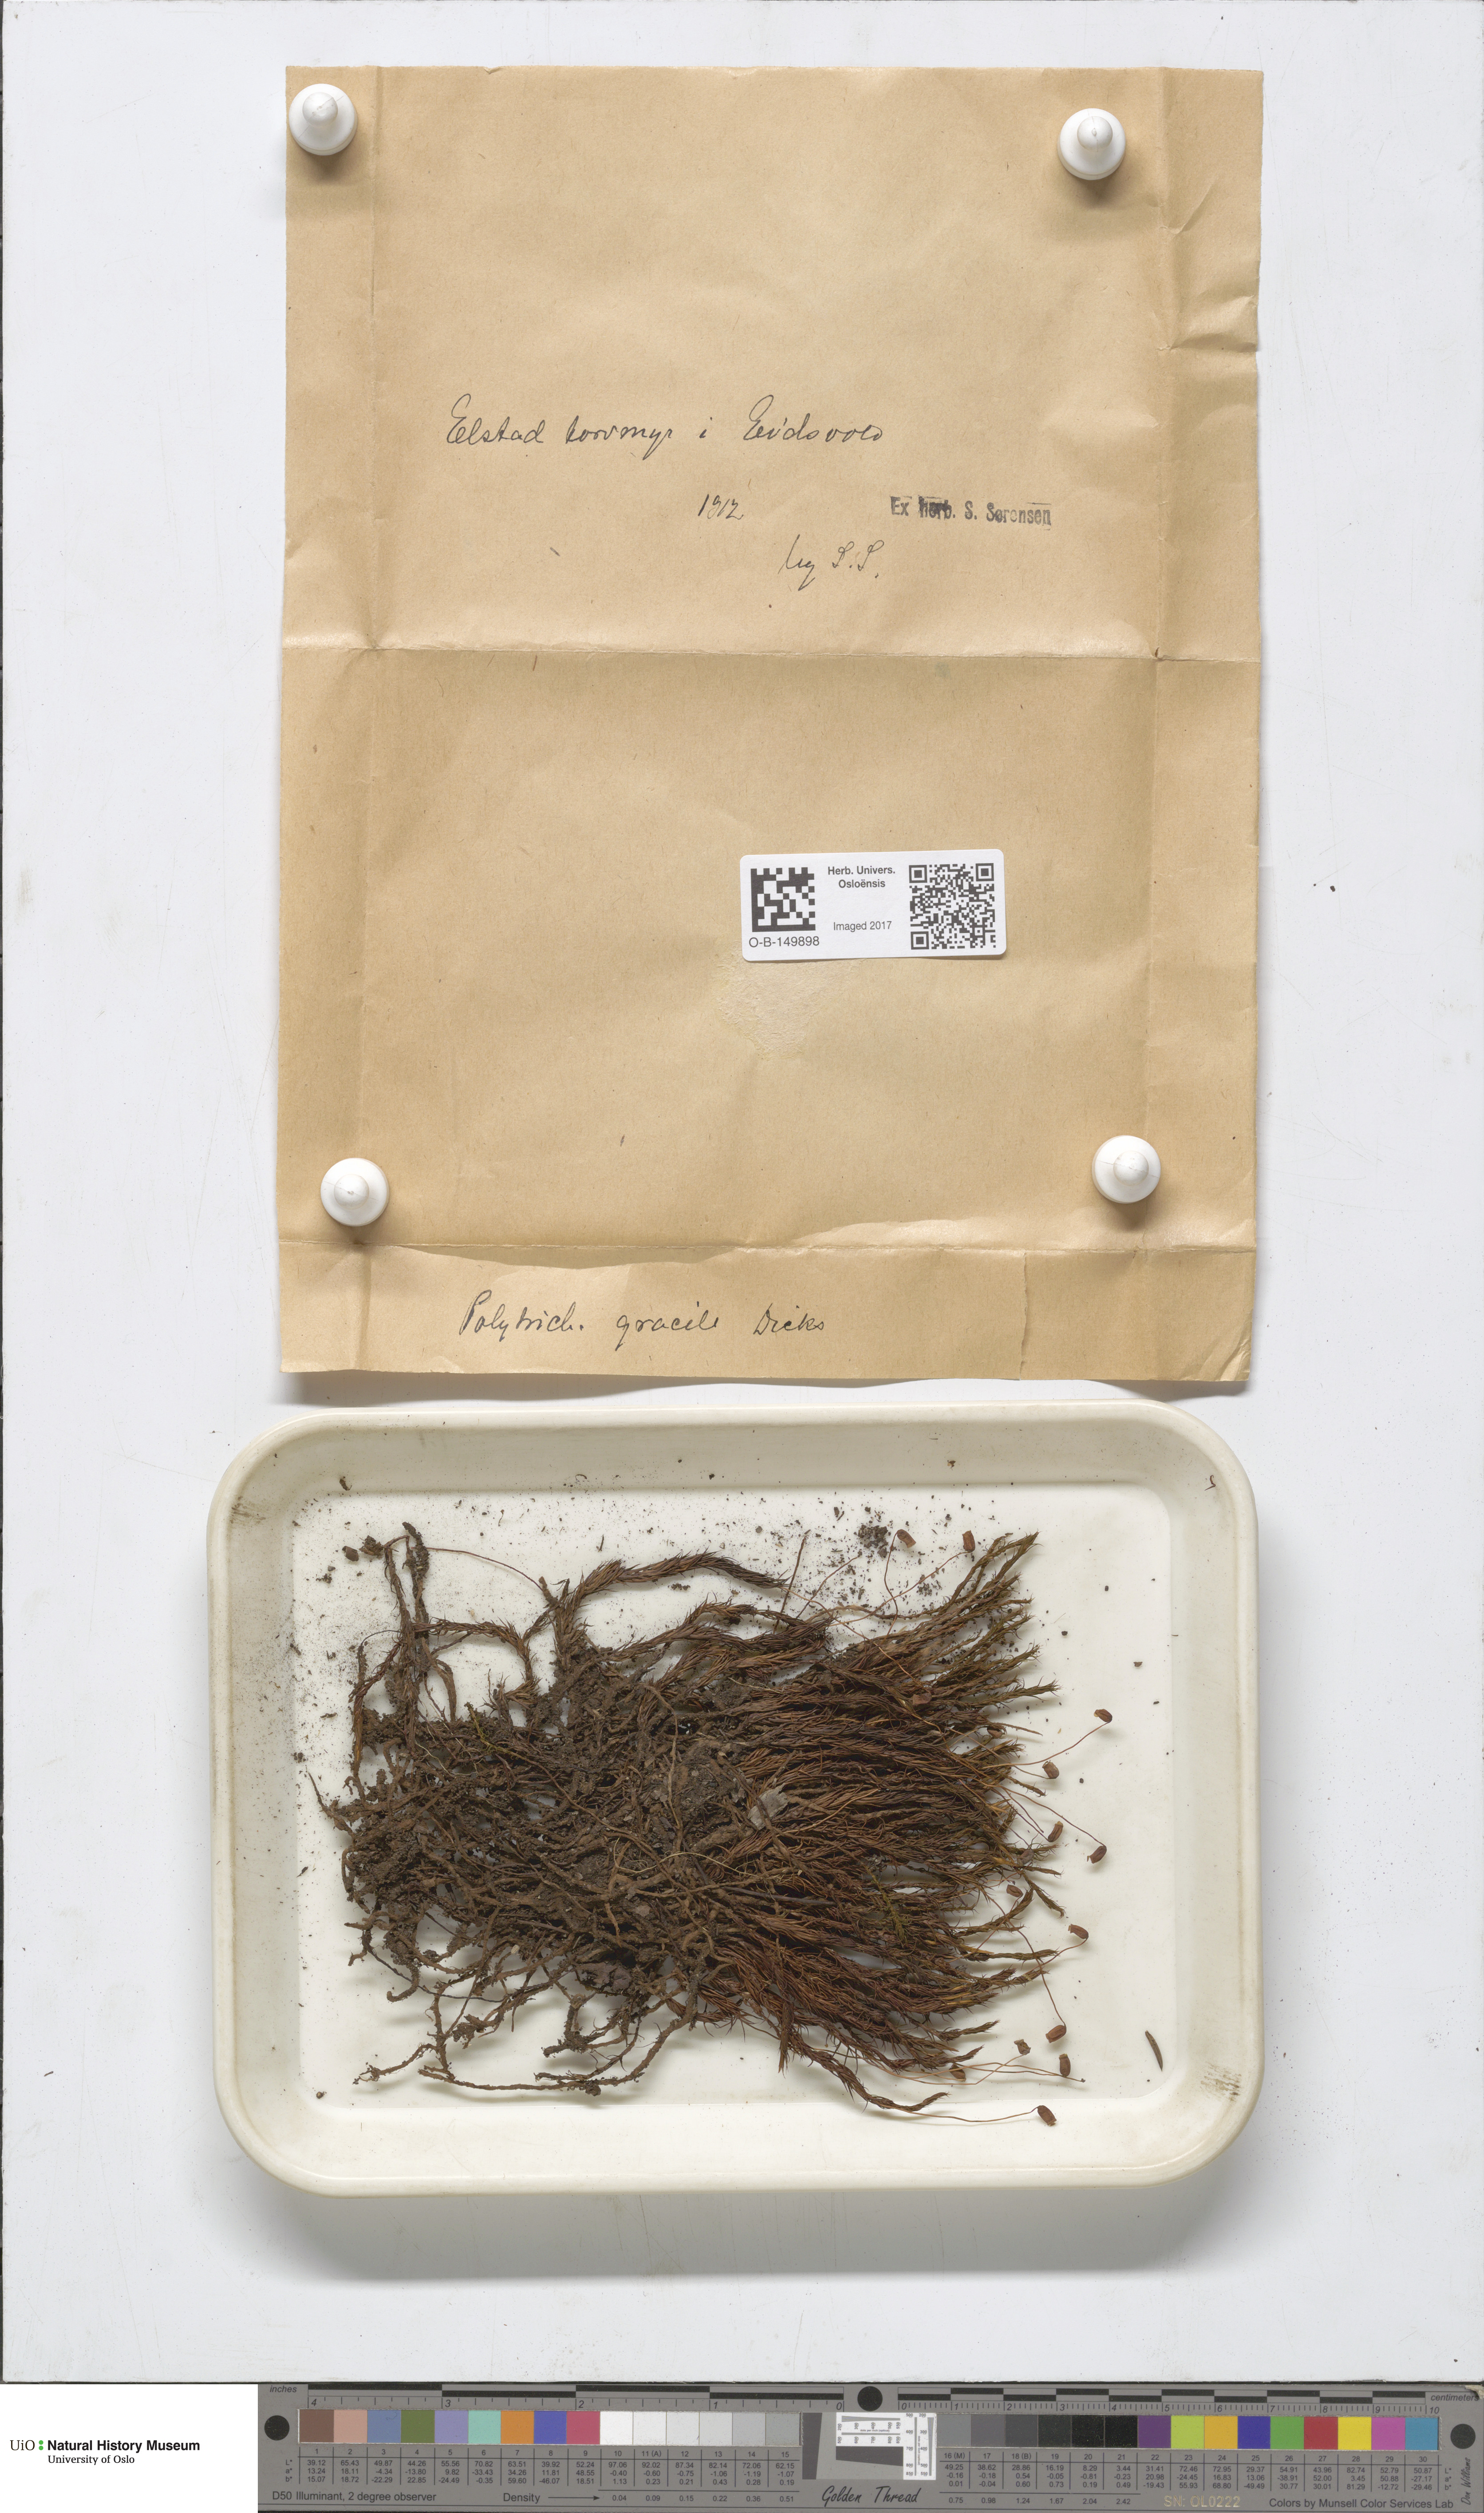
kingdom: Plantae
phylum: Bryophyta
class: Polytrichopsida
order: Polytrichales
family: Polytrichaceae
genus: Polytrichum
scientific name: Polytrichum longisetum
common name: Long-stalked haircap moss
